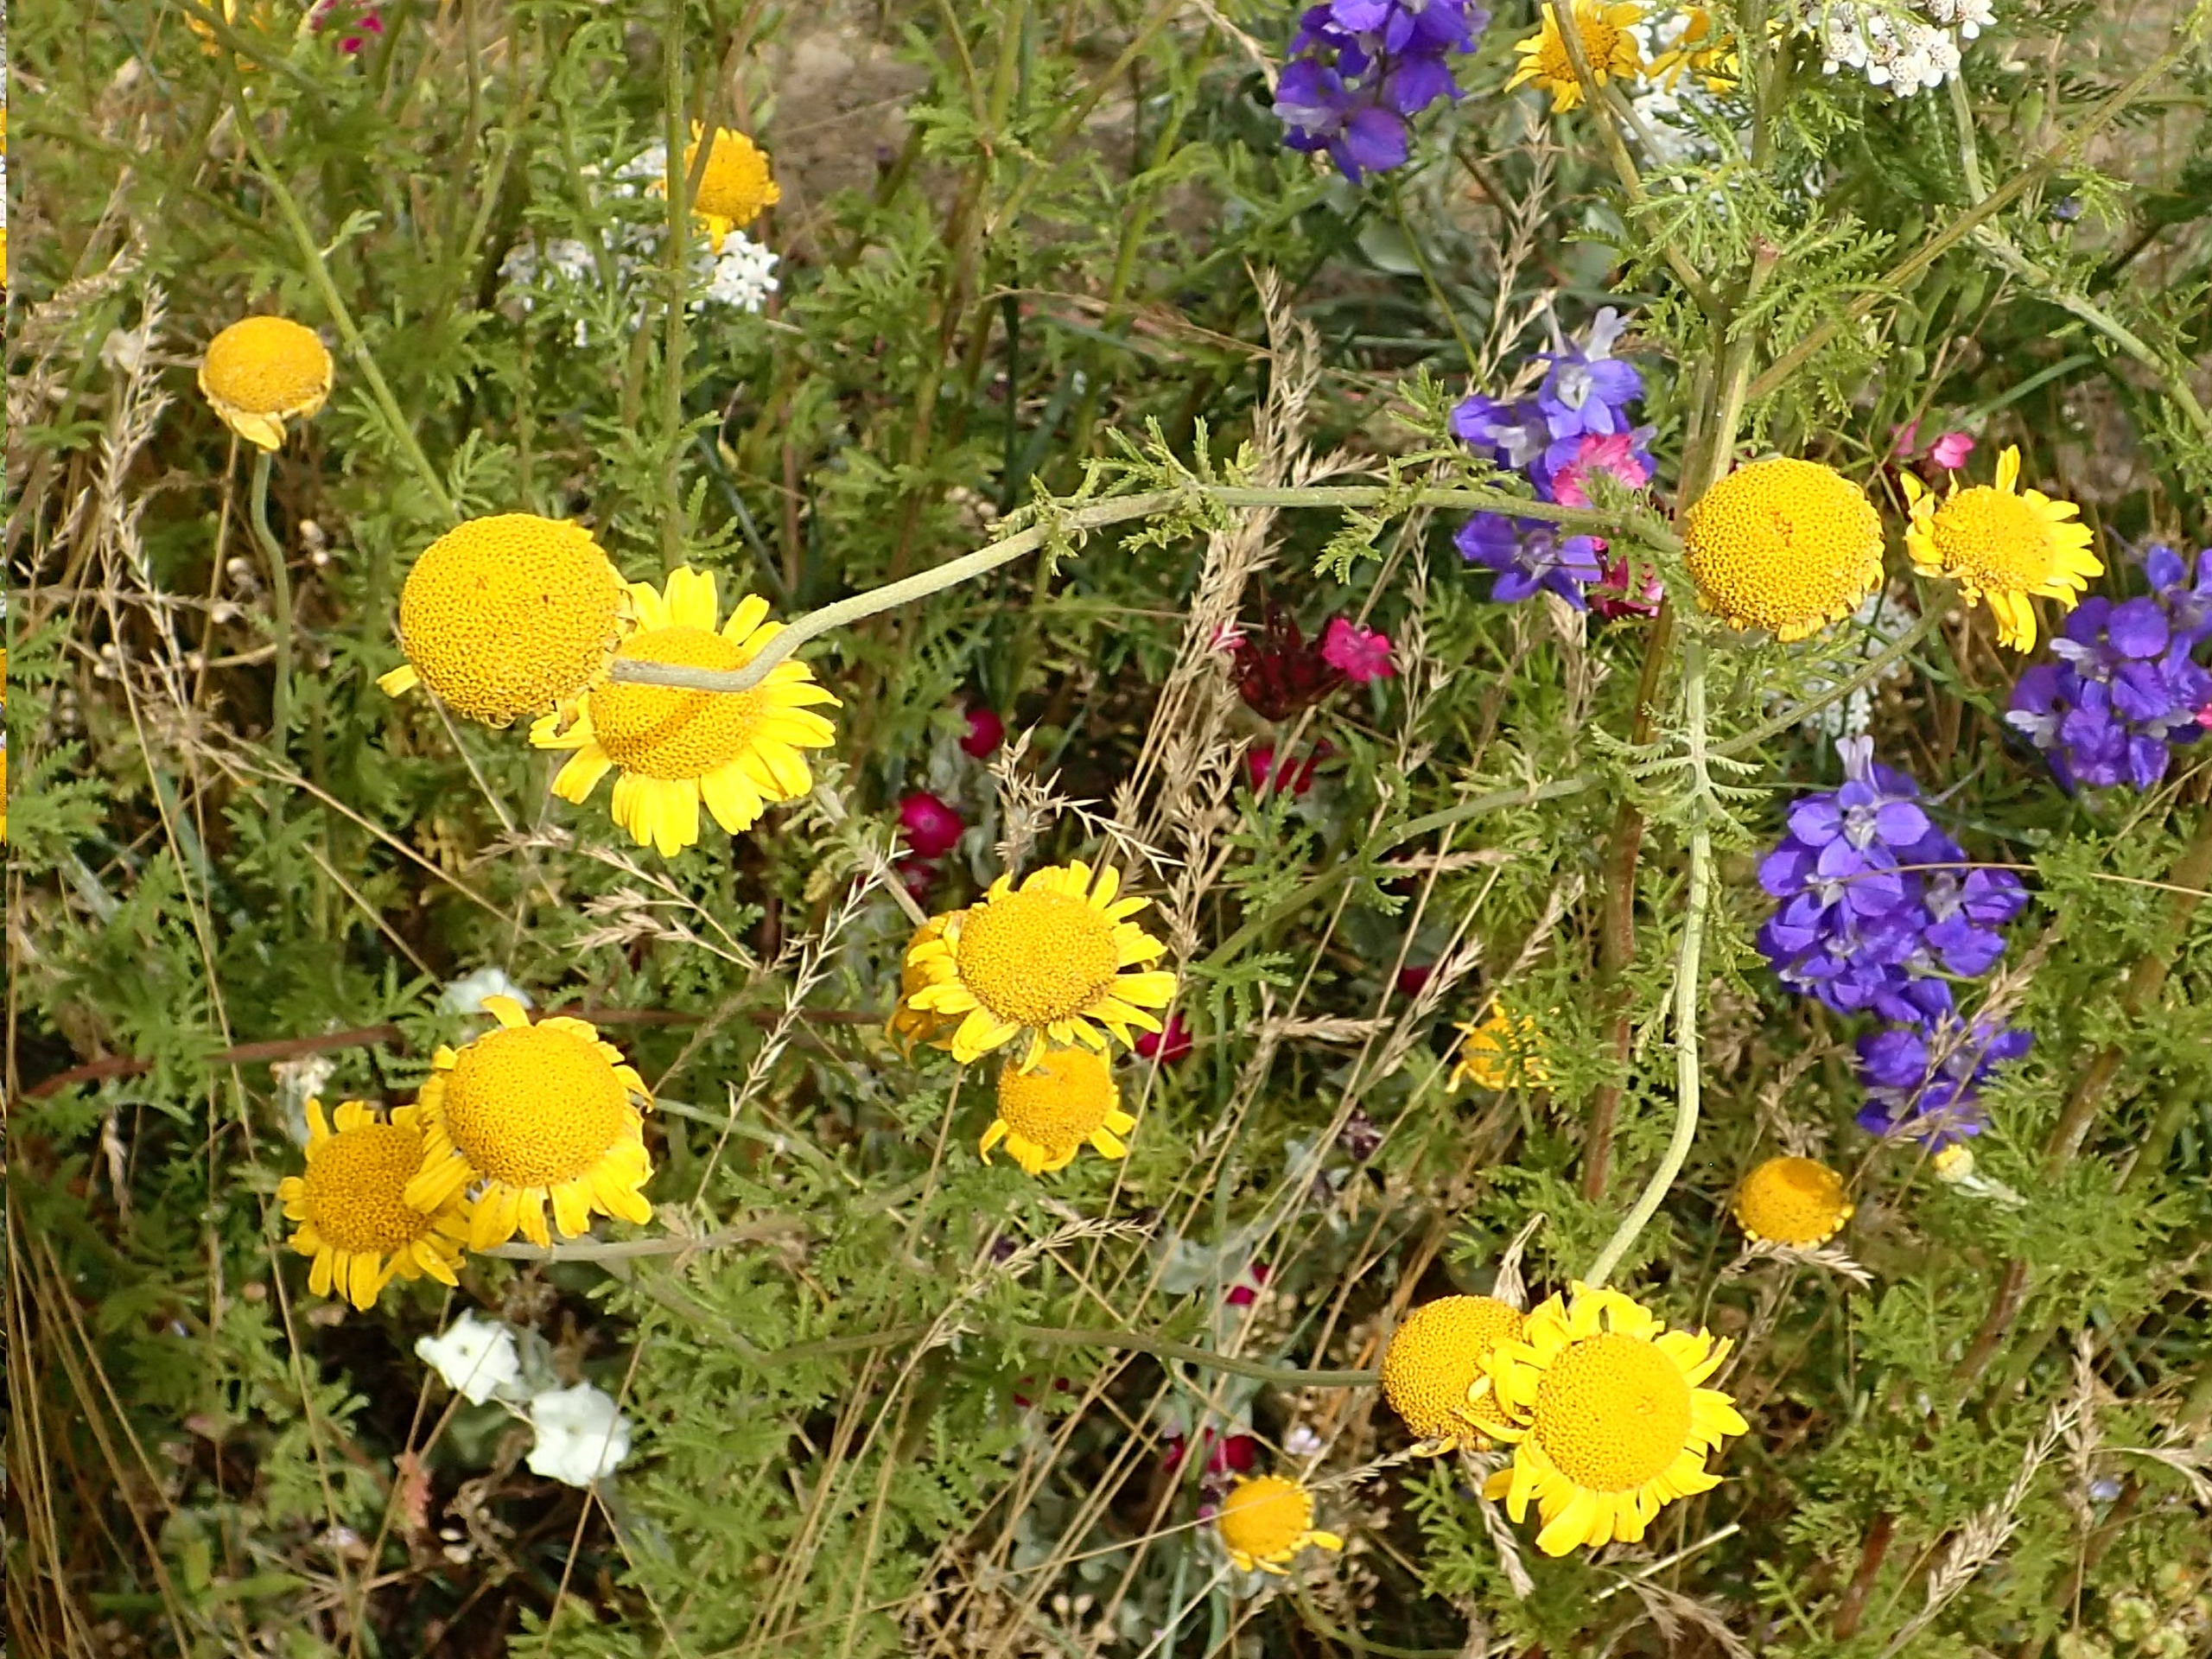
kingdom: Plantae
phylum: Tracheophyta
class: Magnoliopsida
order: Asterales
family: Asteraceae
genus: Cota
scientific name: Cota tinctoria
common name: Farve-gåseurt
